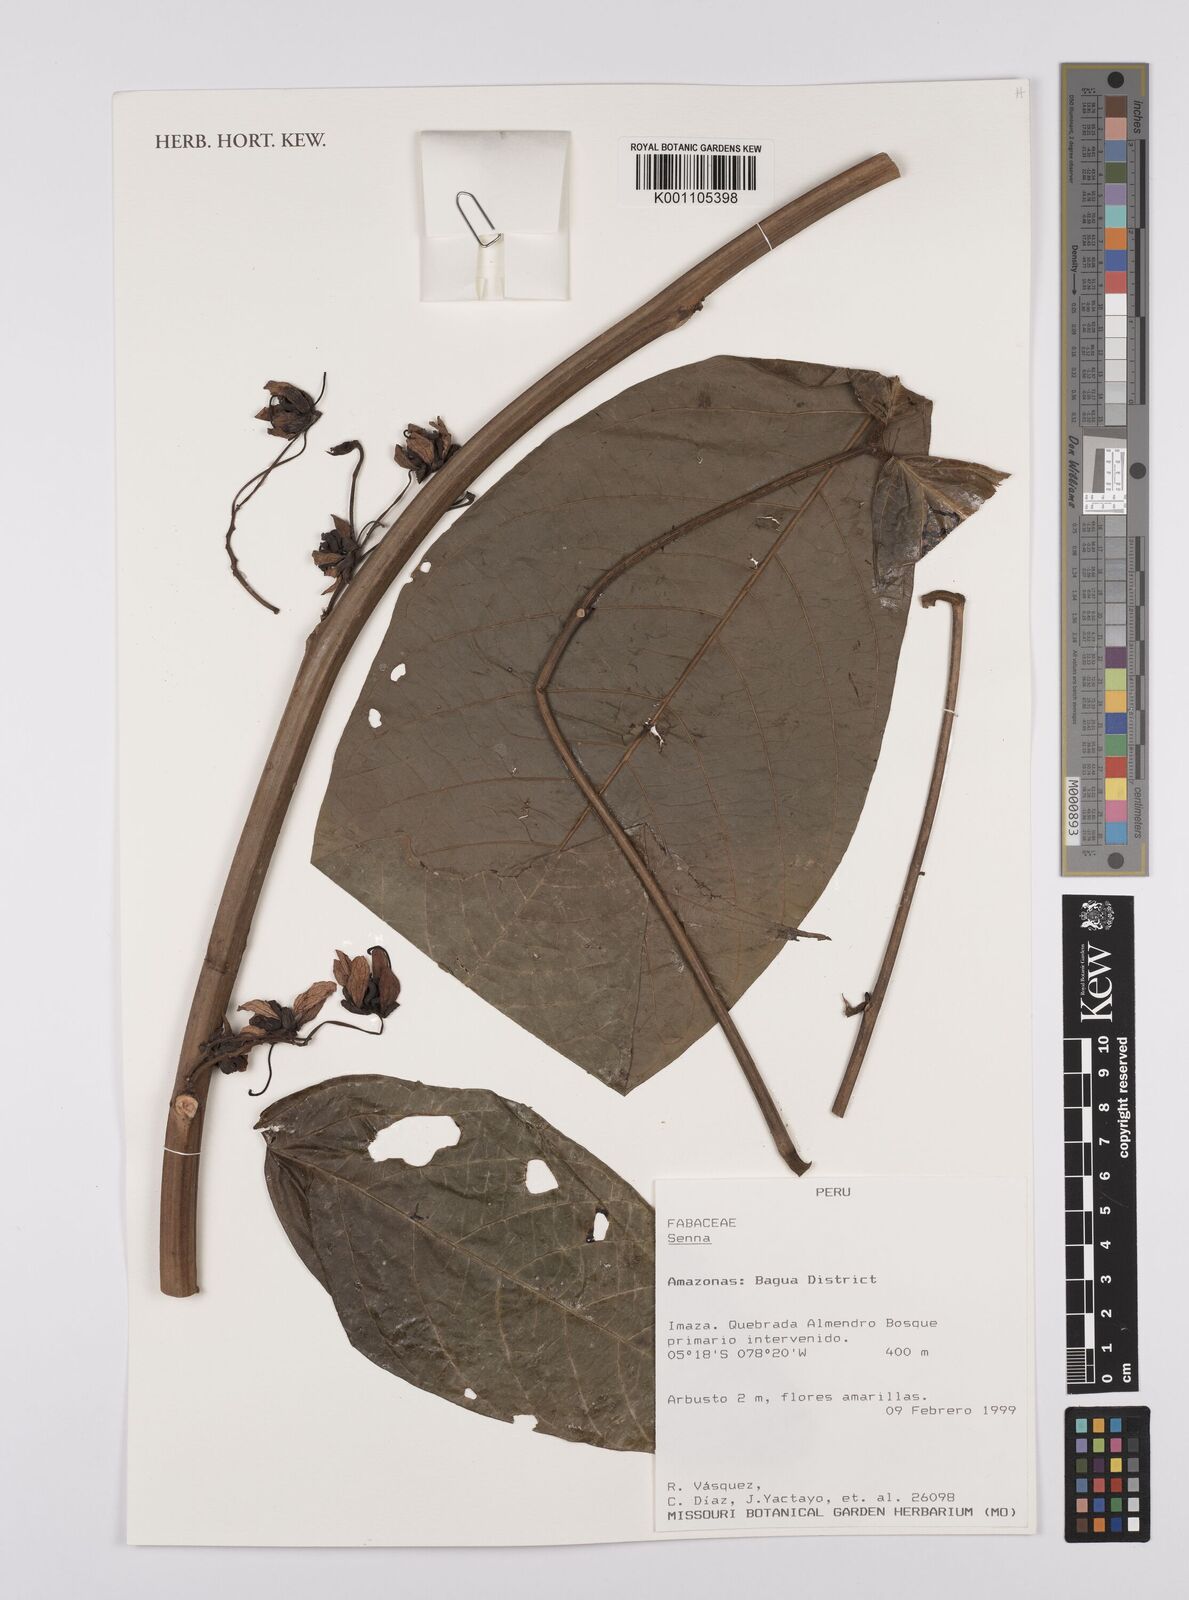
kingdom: Plantae
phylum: Tracheophyta
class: Magnoliopsida
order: Fabales
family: Fabaceae
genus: Senna
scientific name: Senna
